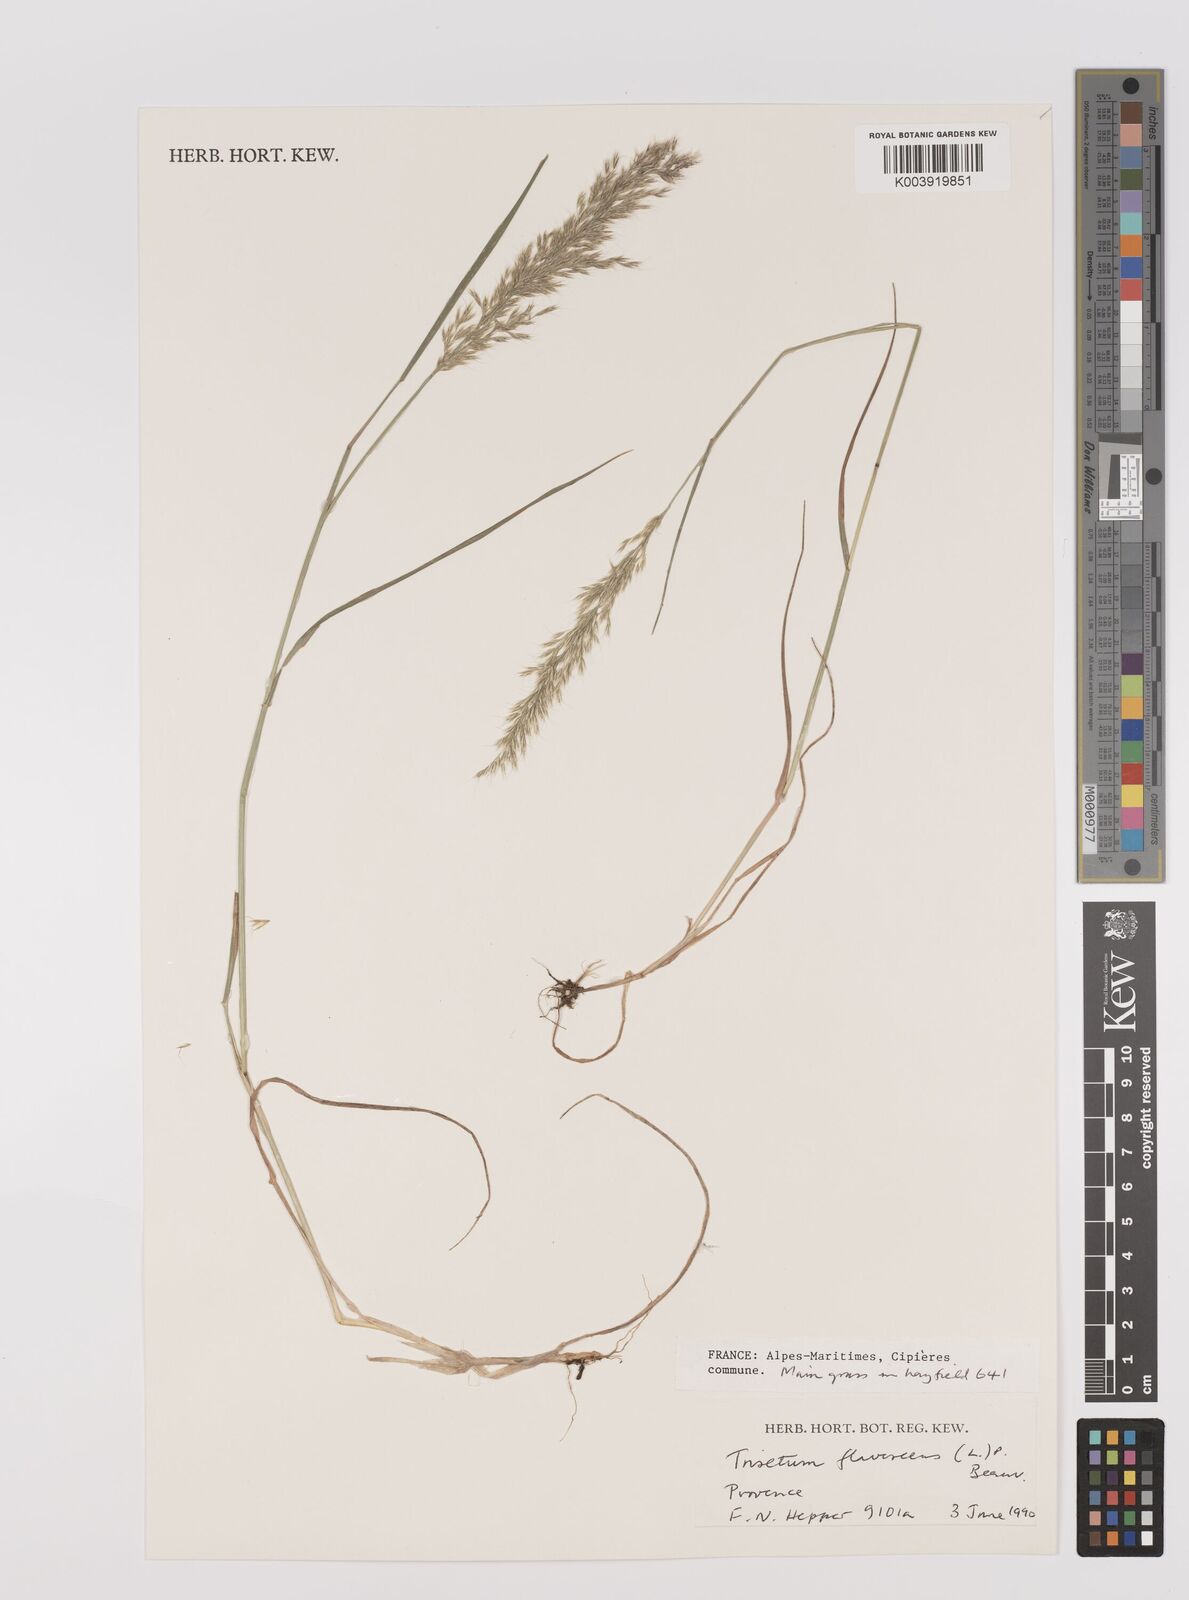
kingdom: Plantae
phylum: Tracheophyta
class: Liliopsida
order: Poales
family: Poaceae
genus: Trisetum
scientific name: Trisetum flavescens
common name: Yellow oat-grass
